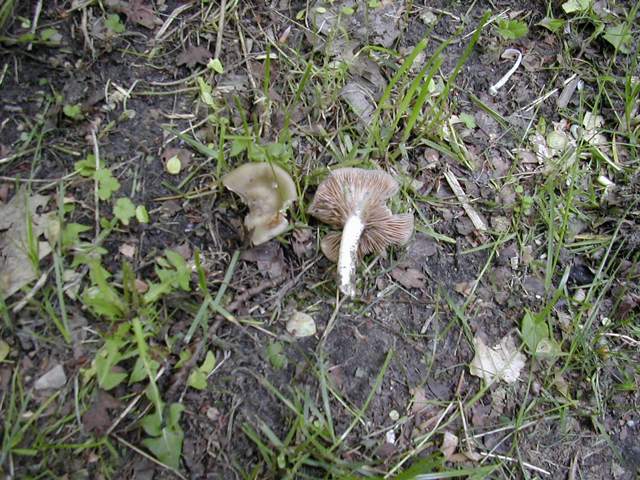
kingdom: Fungi
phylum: Basidiomycota
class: Agaricomycetes
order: Agaricales
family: Entolomataceae
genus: Entoloma
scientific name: Entoloma clypeatum
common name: flammet rødblad
